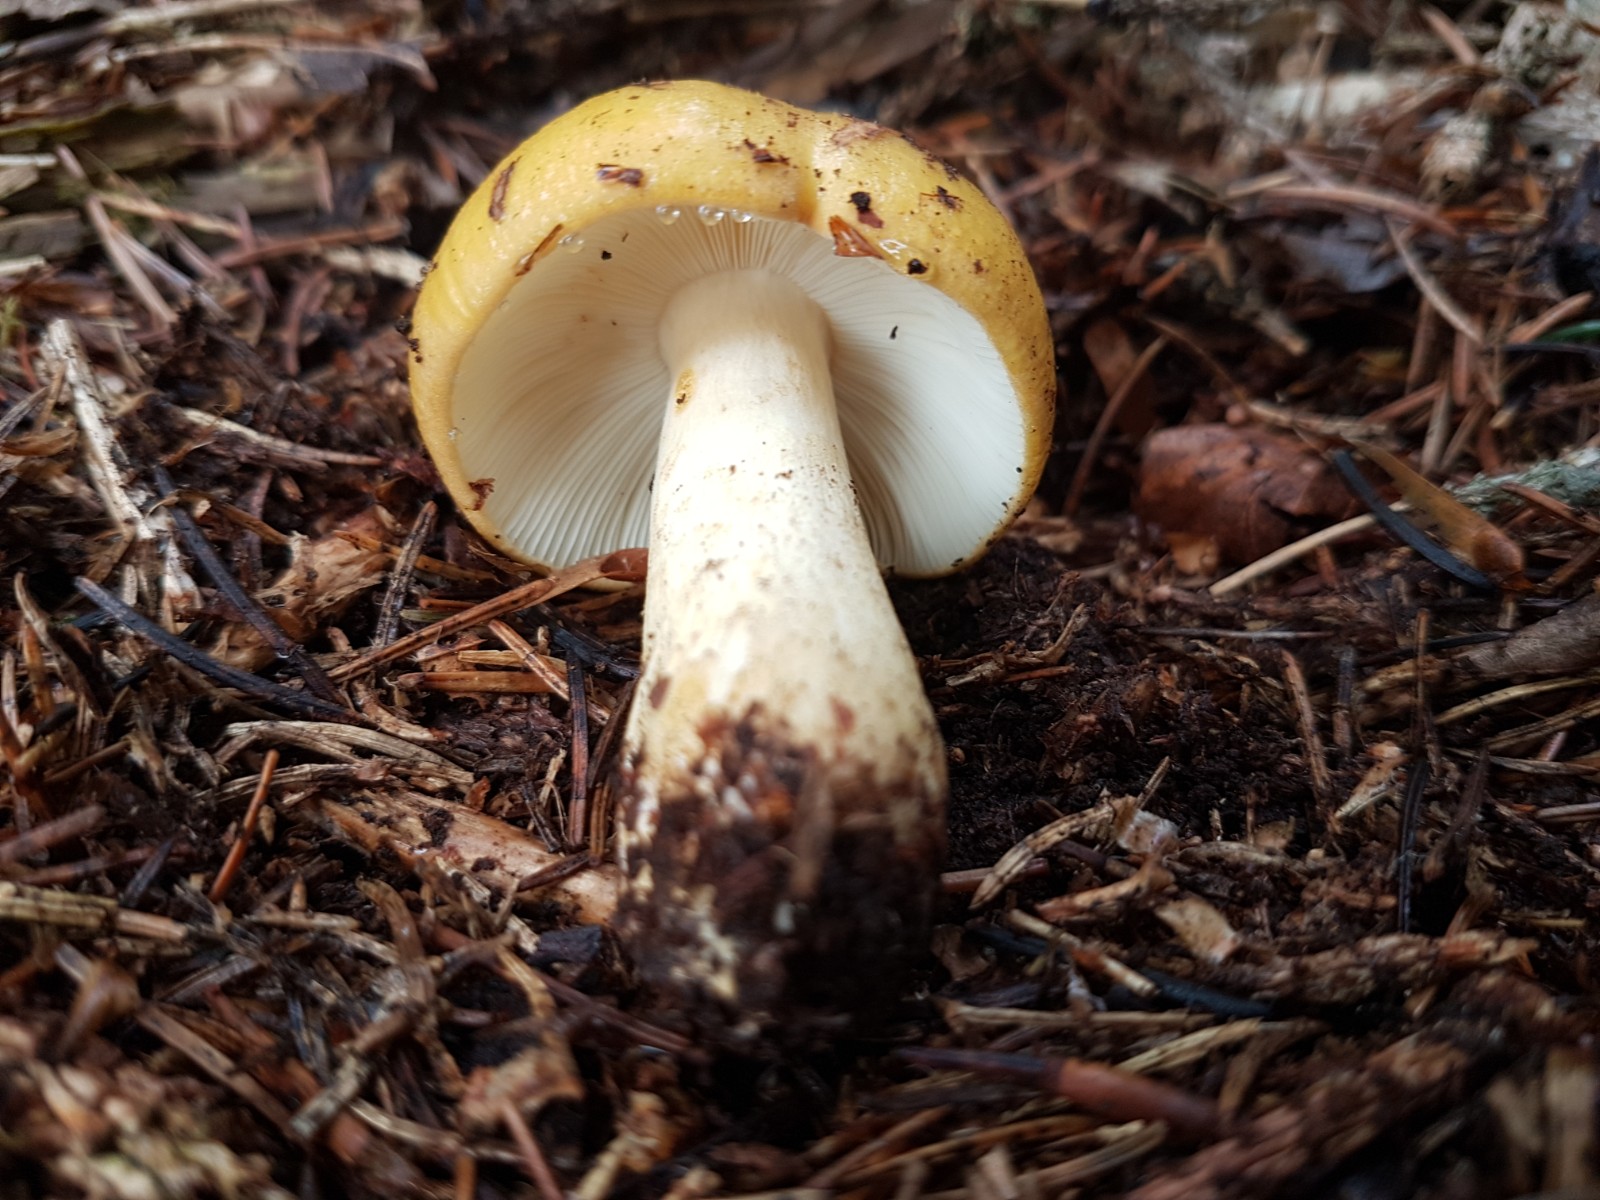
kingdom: Fungi
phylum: Basidiomycota
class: Agaricomycetes
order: Russulales
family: Russulaceae
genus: Russula
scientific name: Russula ochroleuca
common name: okkergul skørhat
